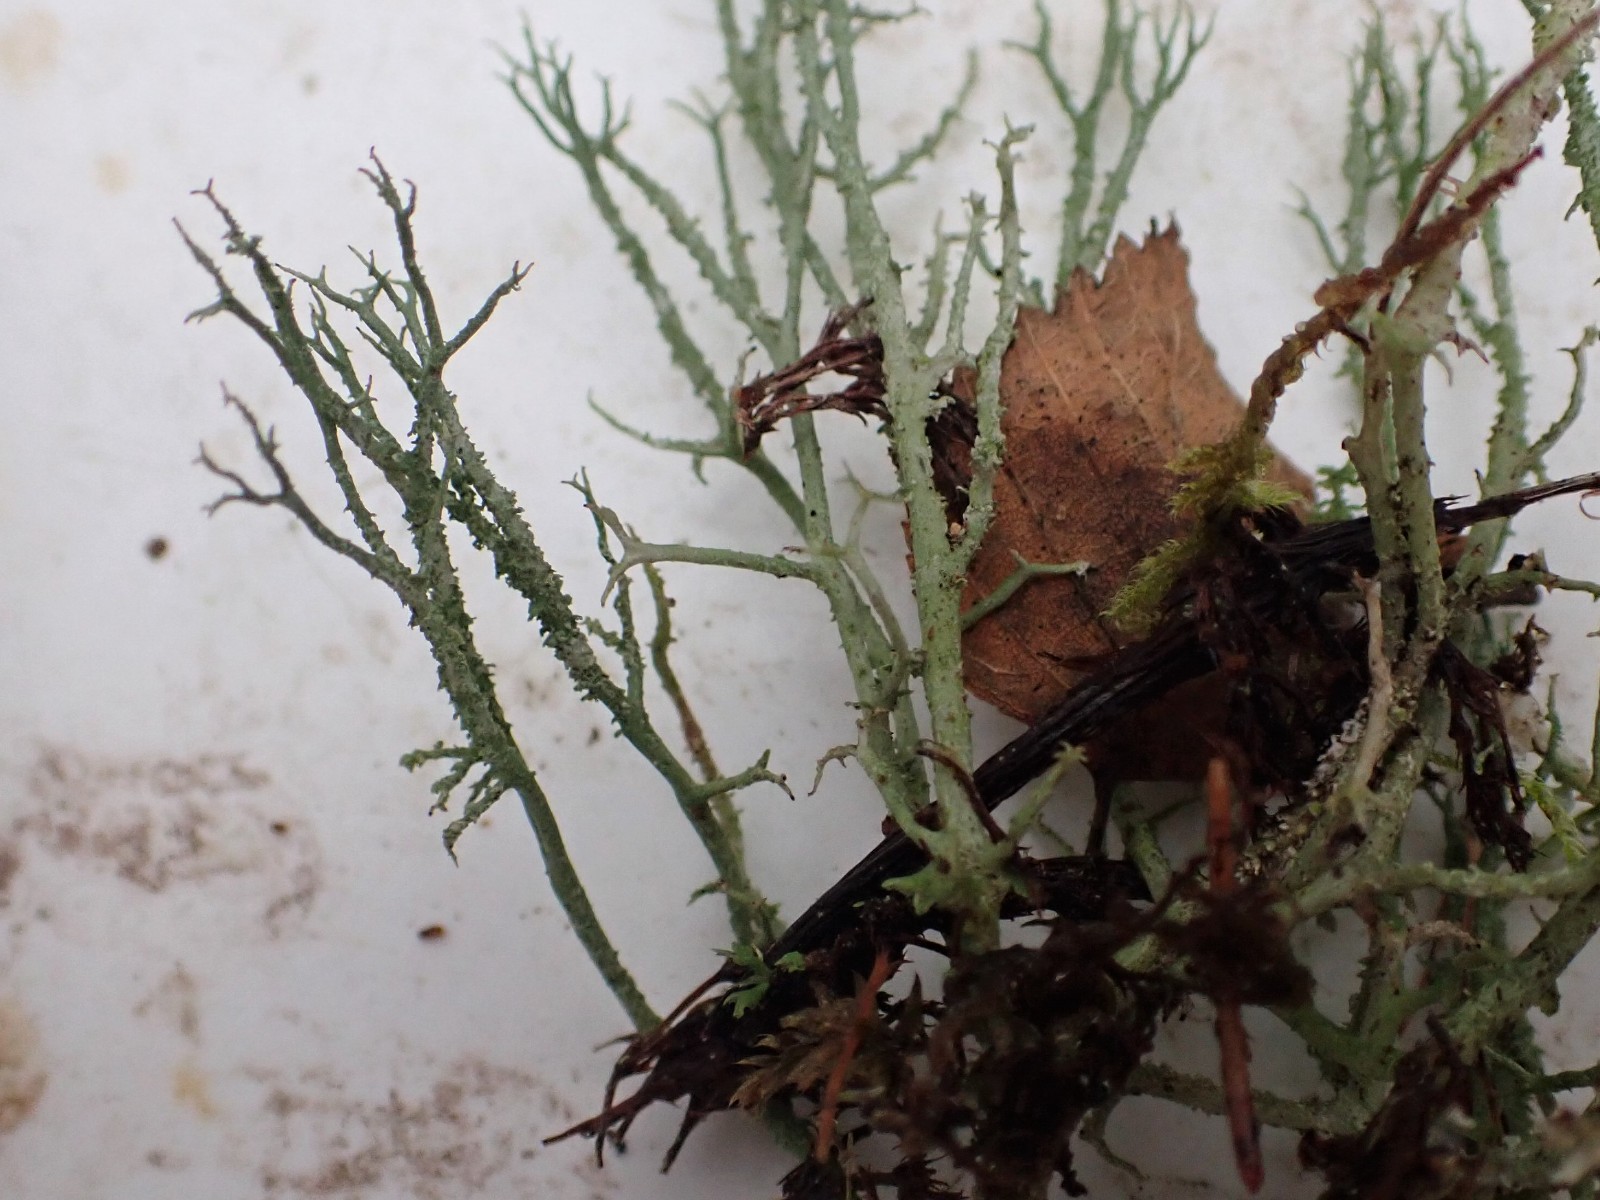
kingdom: Fungi
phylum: Ascomycota
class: Lecanoromycetes
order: Lecanorales
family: Cladoniaceae
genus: Cladonia
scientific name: Cladonia scabriuscula
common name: ru bægerlav
